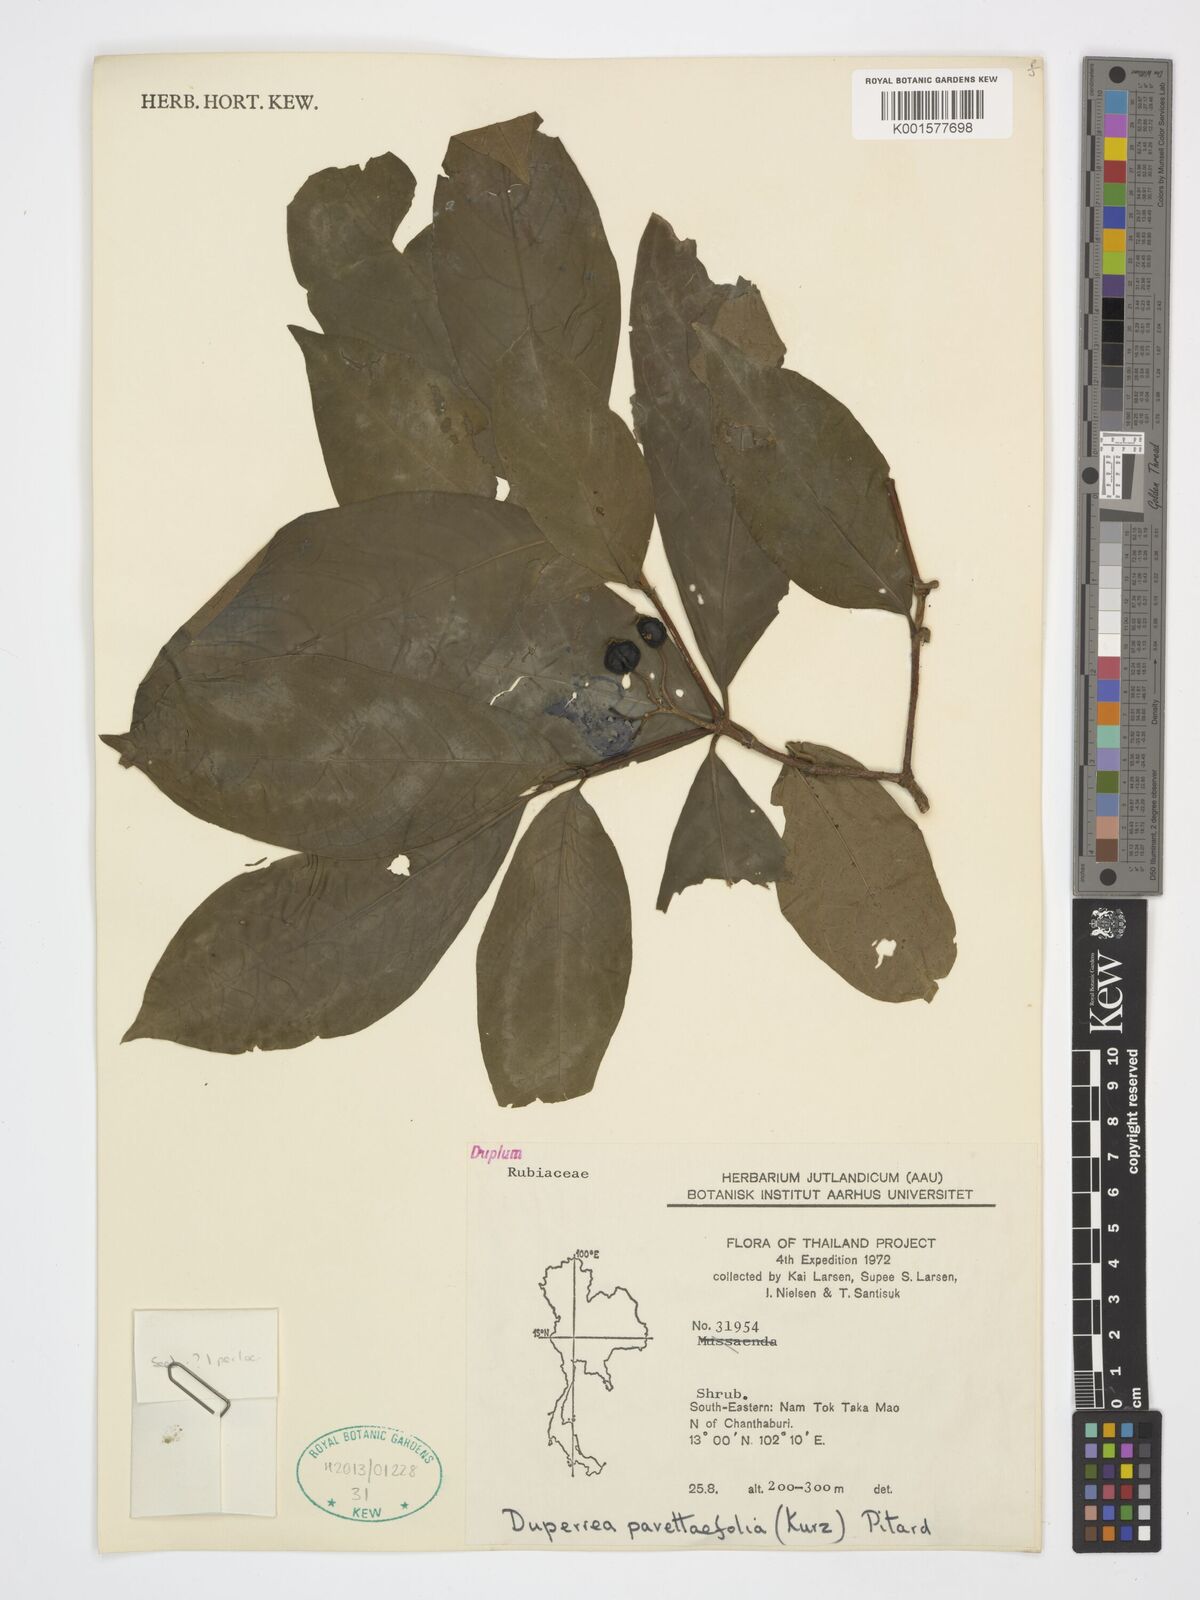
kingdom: Plantae
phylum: Tracheophyta
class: Magnoliopsida
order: Gentianales
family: Rubiaceae
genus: Duperrea
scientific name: Duperrea pavettifolia
